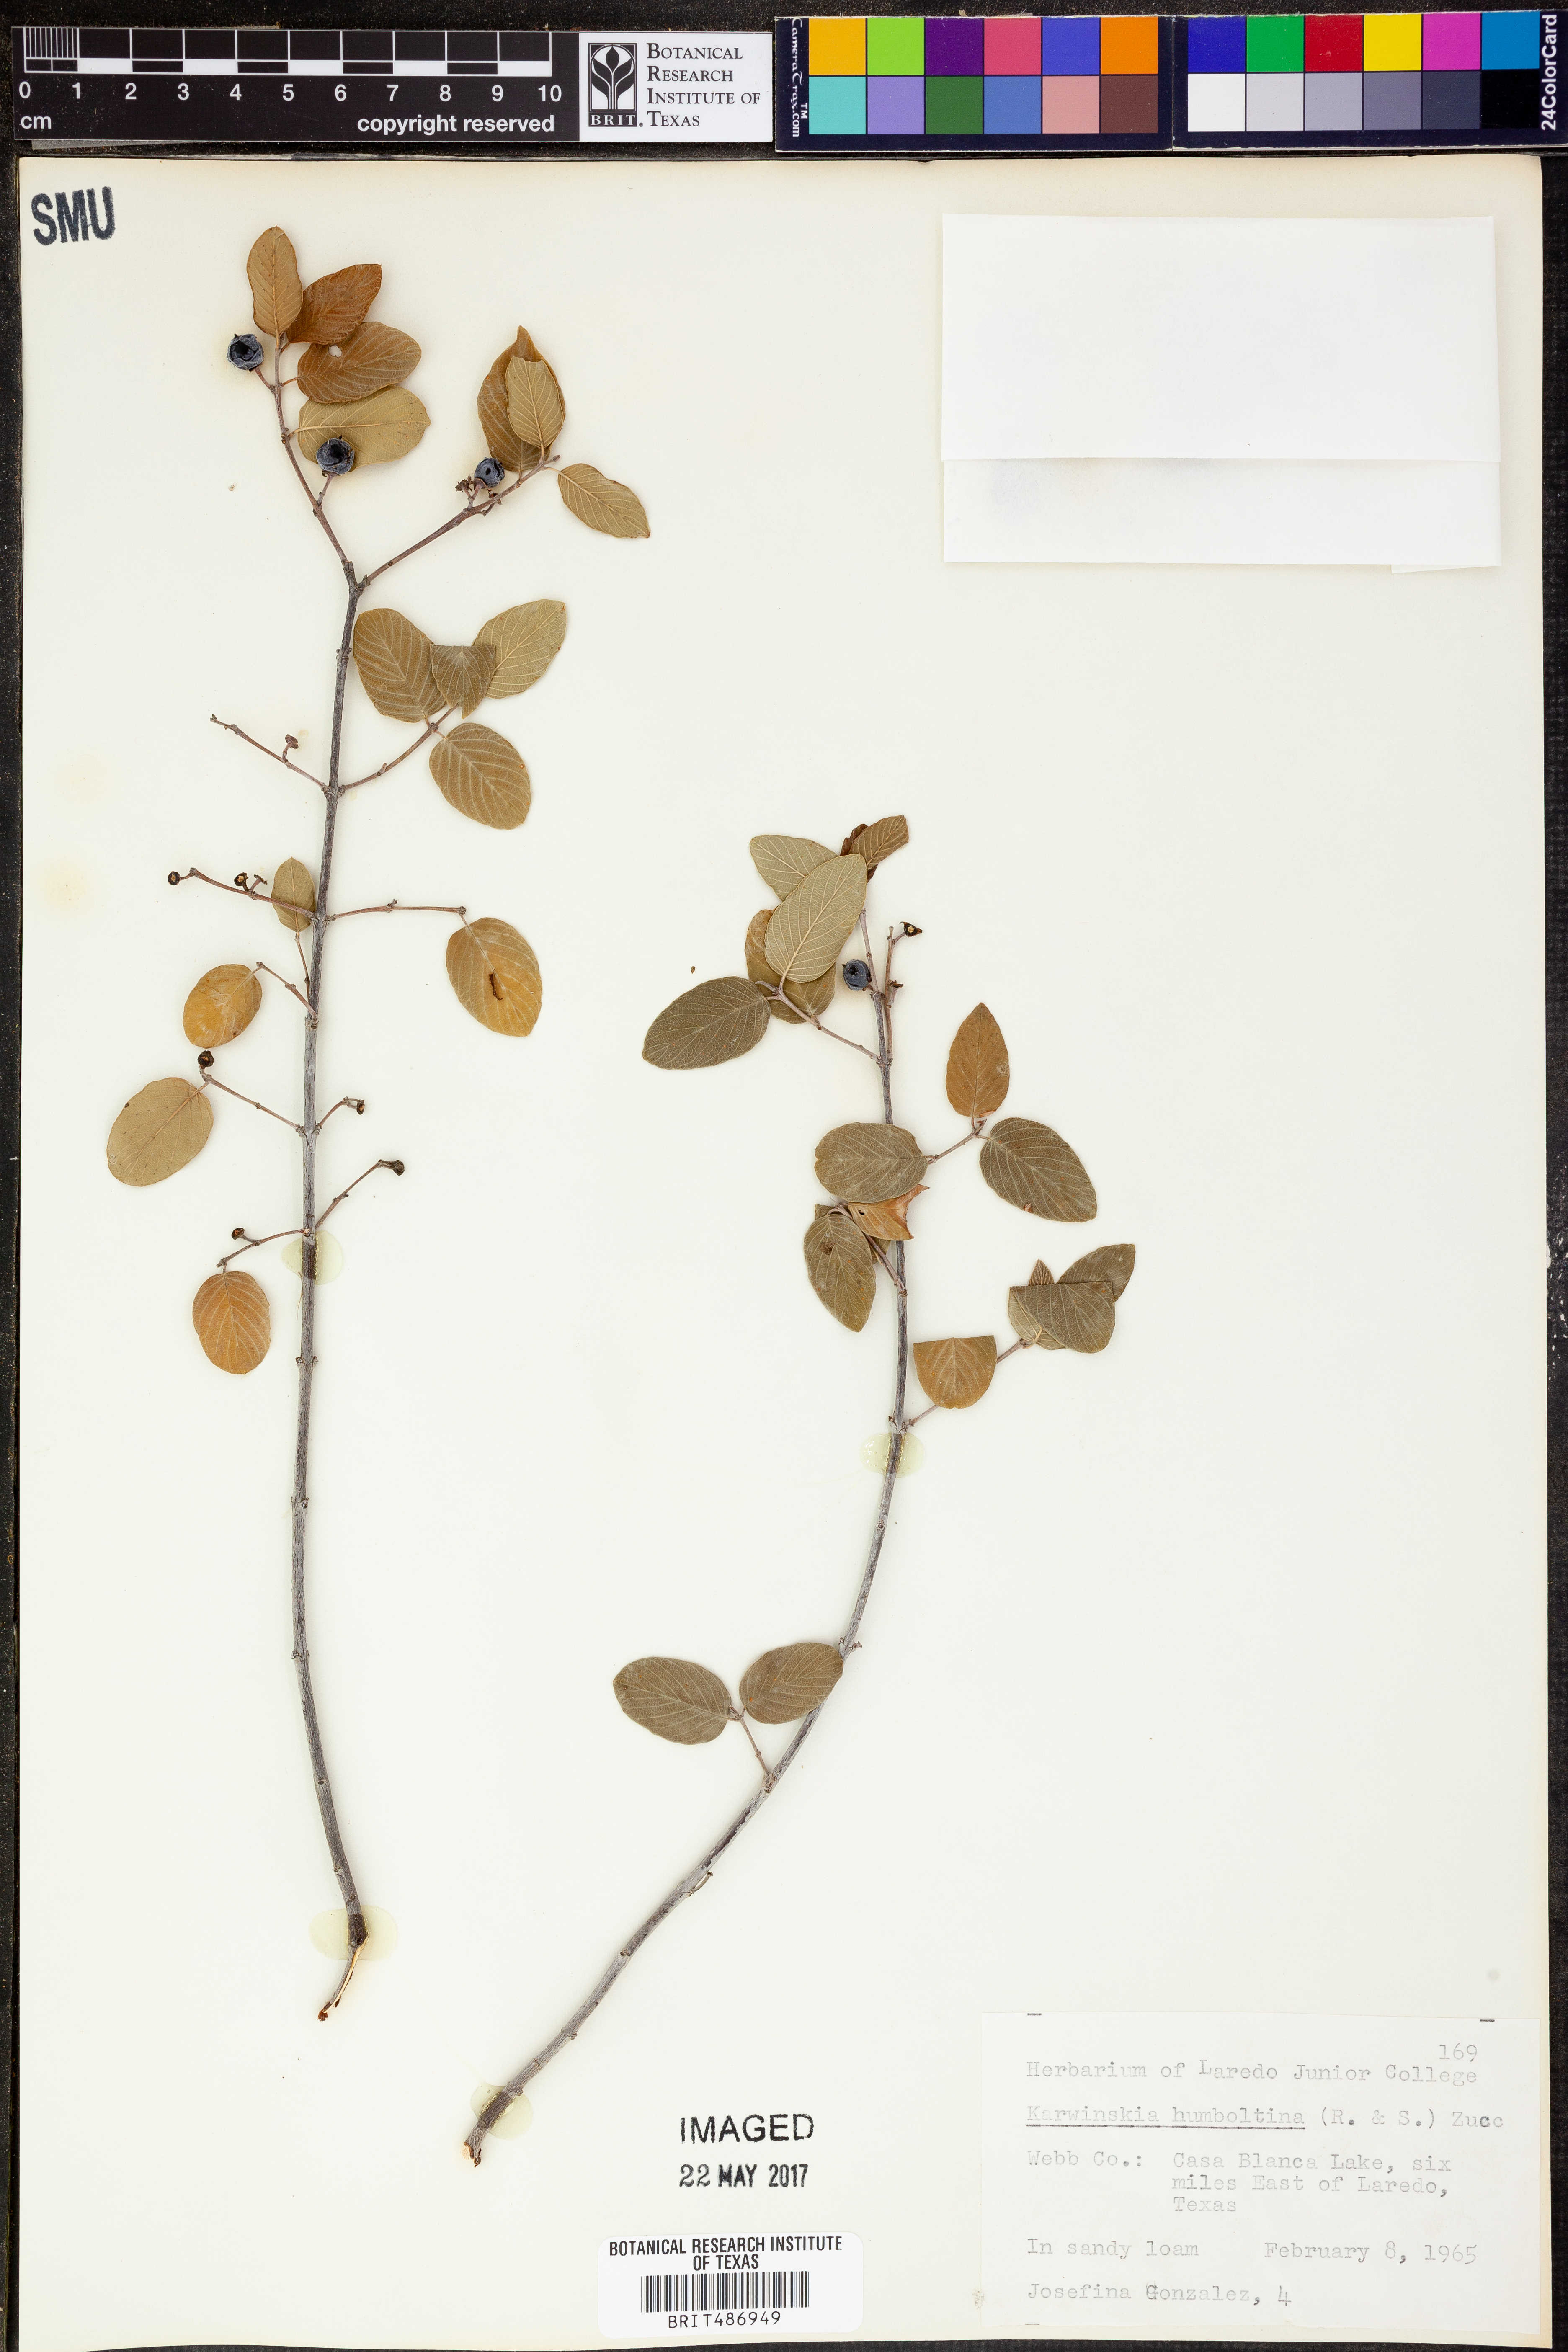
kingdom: Plantae
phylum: Tracheophyta
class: Magnoliopsida
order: Rosales
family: Rhamnaceae
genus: Karwinskia
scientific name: Karwinskia humboldtiana
